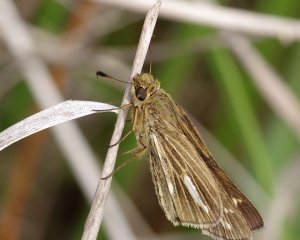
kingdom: Animalia
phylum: Arthropoda
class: Insecta
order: Lepidoptera
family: Hesperiidae
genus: Panoquina
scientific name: Panoquina panoquin
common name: Salt Marsh Skipper
